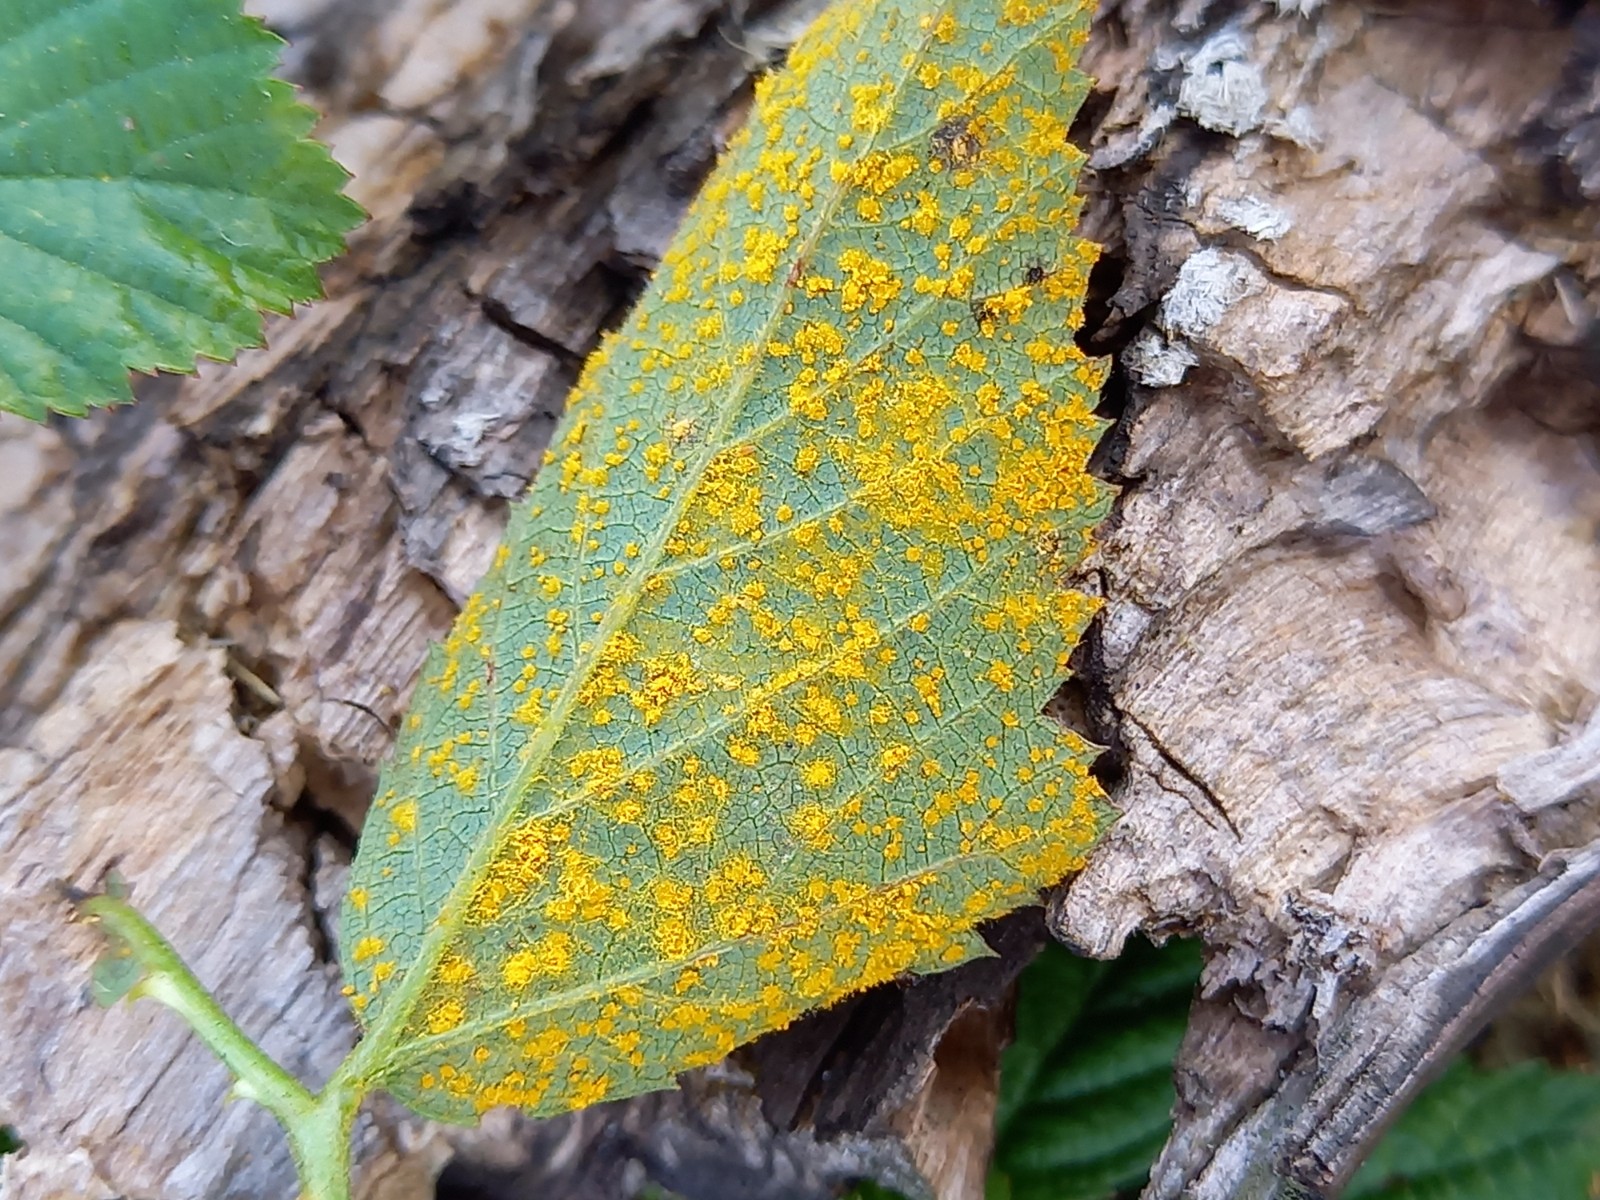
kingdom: Fungi
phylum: Basidiomycota
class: Pucciniomycetes
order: Pucciniales
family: Phragmidiaceae
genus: Kuehneola
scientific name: Kuehneola uredinis
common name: klynger-kædecellerust
